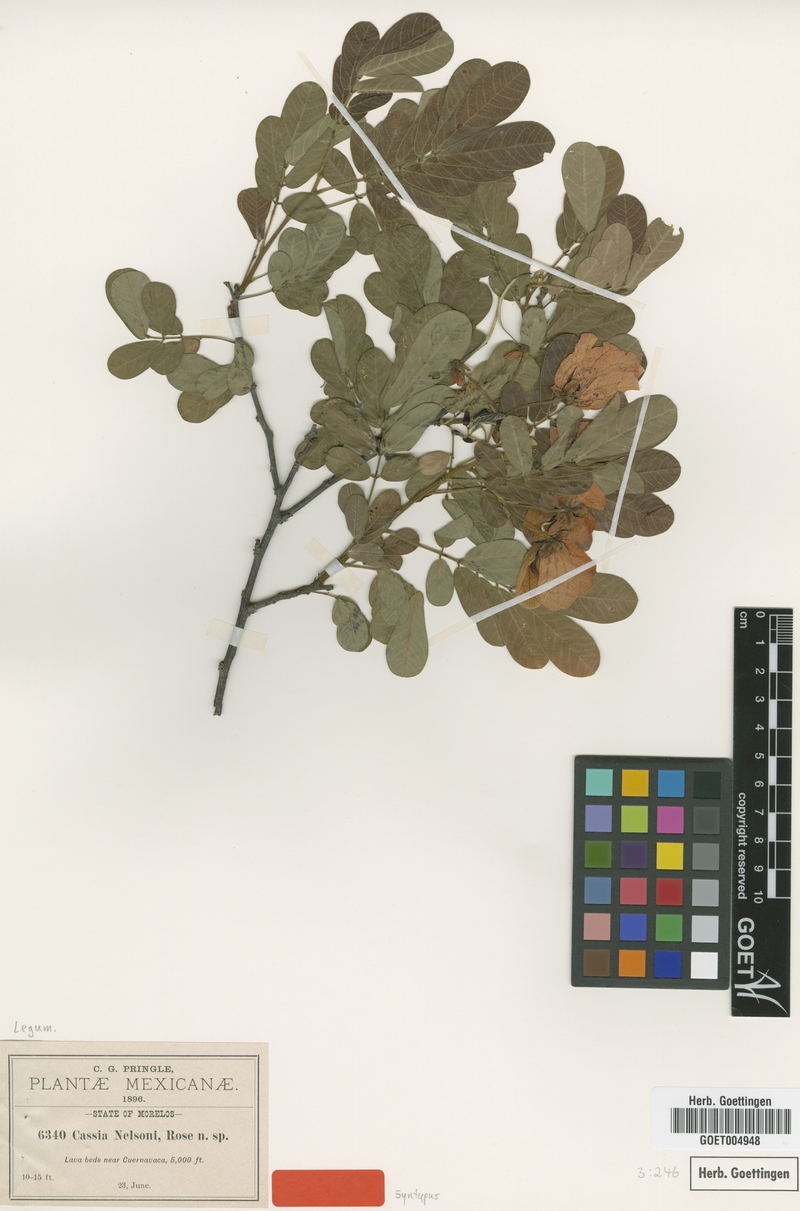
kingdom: Plantae
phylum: Tracheophyta
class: Magnoliopsida
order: Fabales
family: Fabaceae
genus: Senna
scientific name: Senna skinneri
